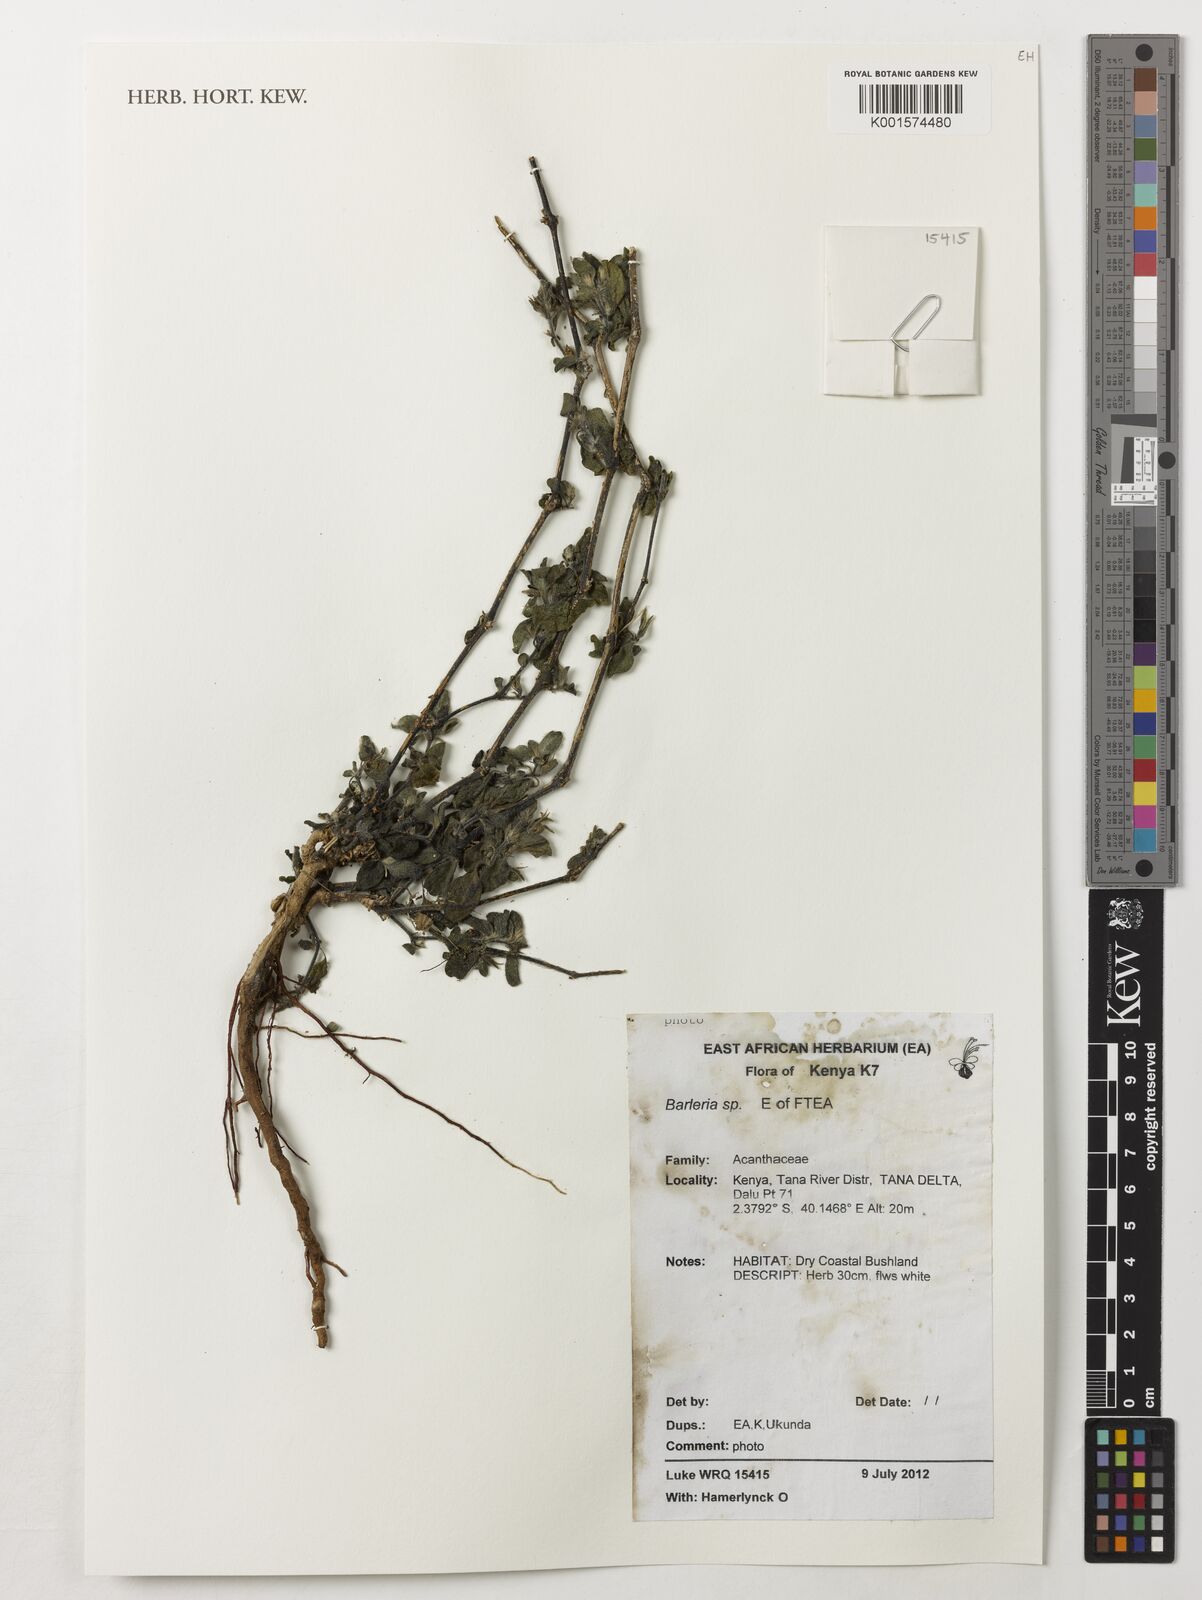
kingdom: Plantae
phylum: Tracheophyta
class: Magnoliopsida
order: Lamiales
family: Acanthaceae
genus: Barleria
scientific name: Barleria
